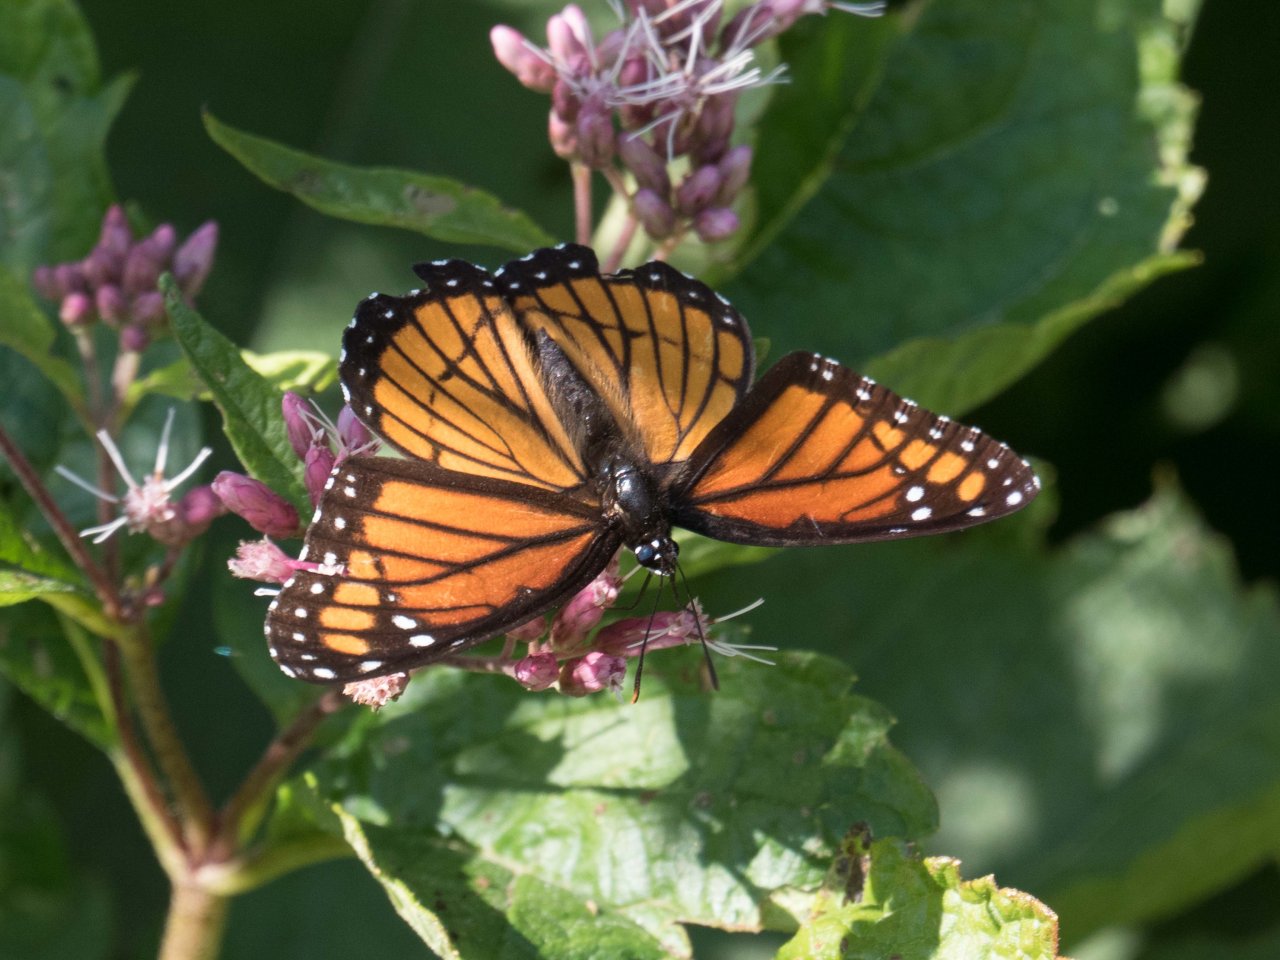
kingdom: Animalia
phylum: Arthropoda
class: Insecta
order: Lepidoptera
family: Nymphalidae
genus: Limenitis
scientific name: Limenitis archippus
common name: Viceroy
